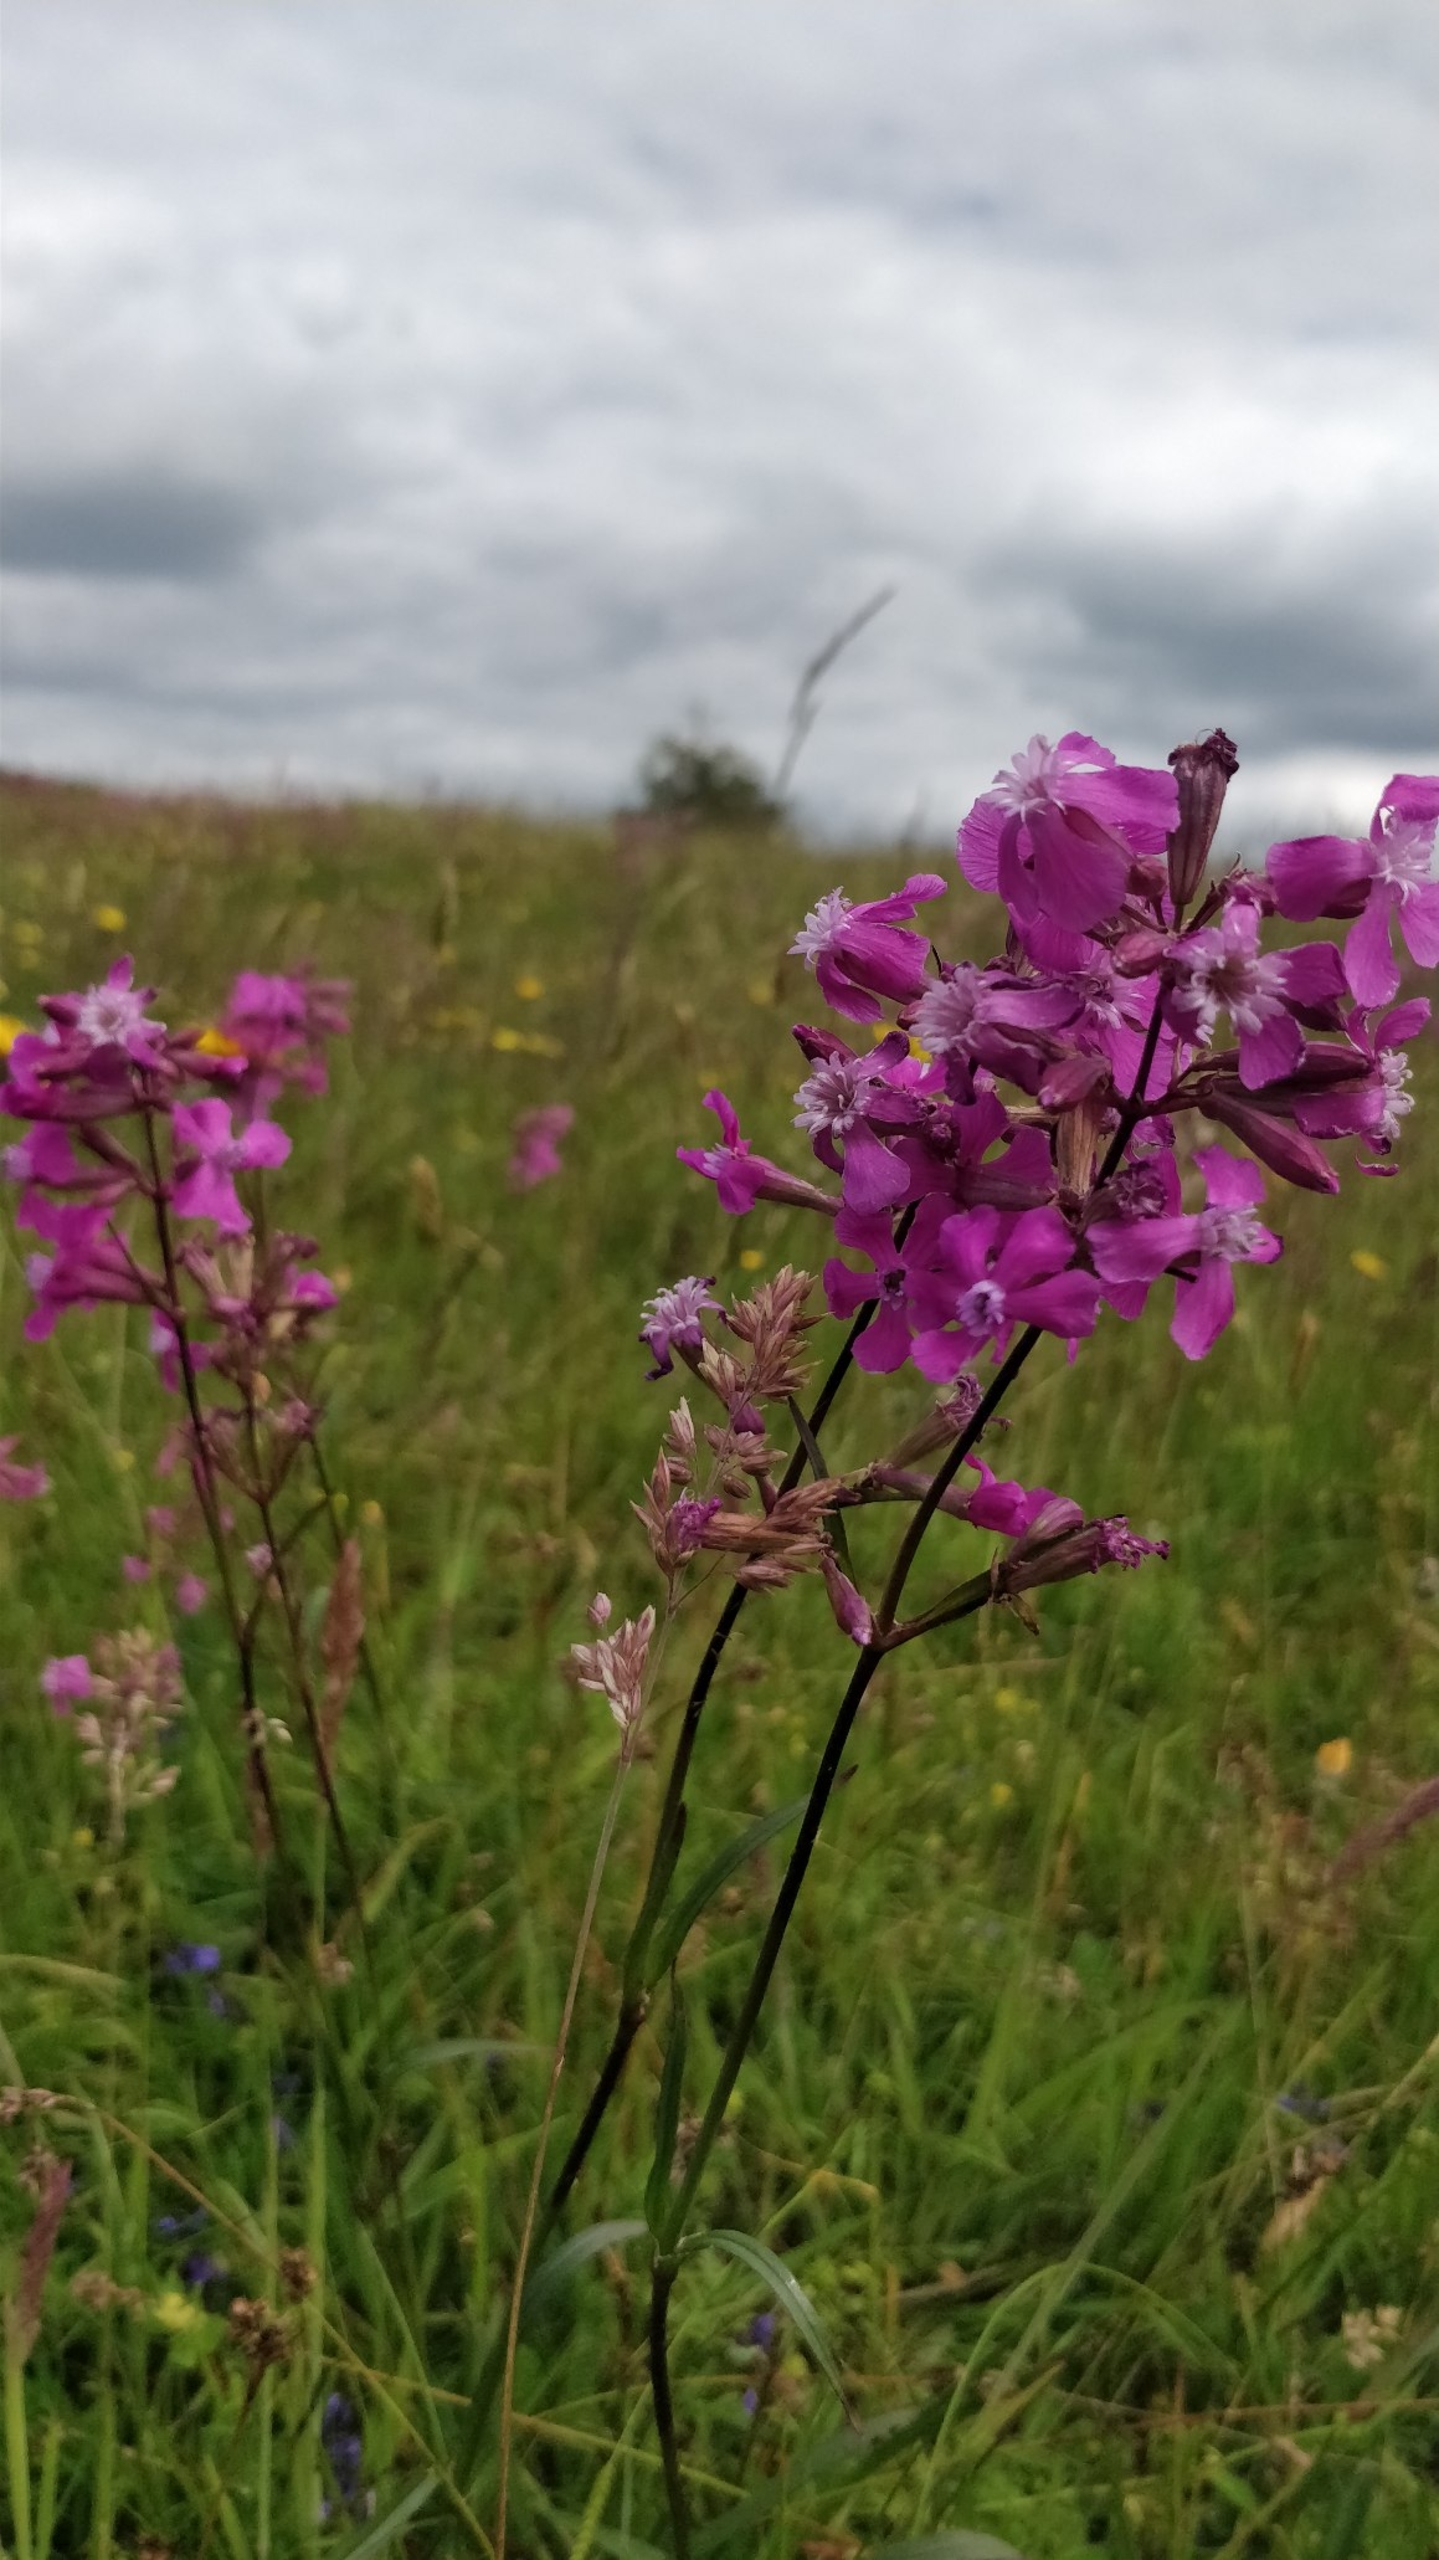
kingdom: Plantae
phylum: Tracheophyta
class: Magnoliopsida
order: Caryophyllales
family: Caryophyllaceae
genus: Viscaria
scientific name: Viscaria vulgaris
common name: Tjærenellike
